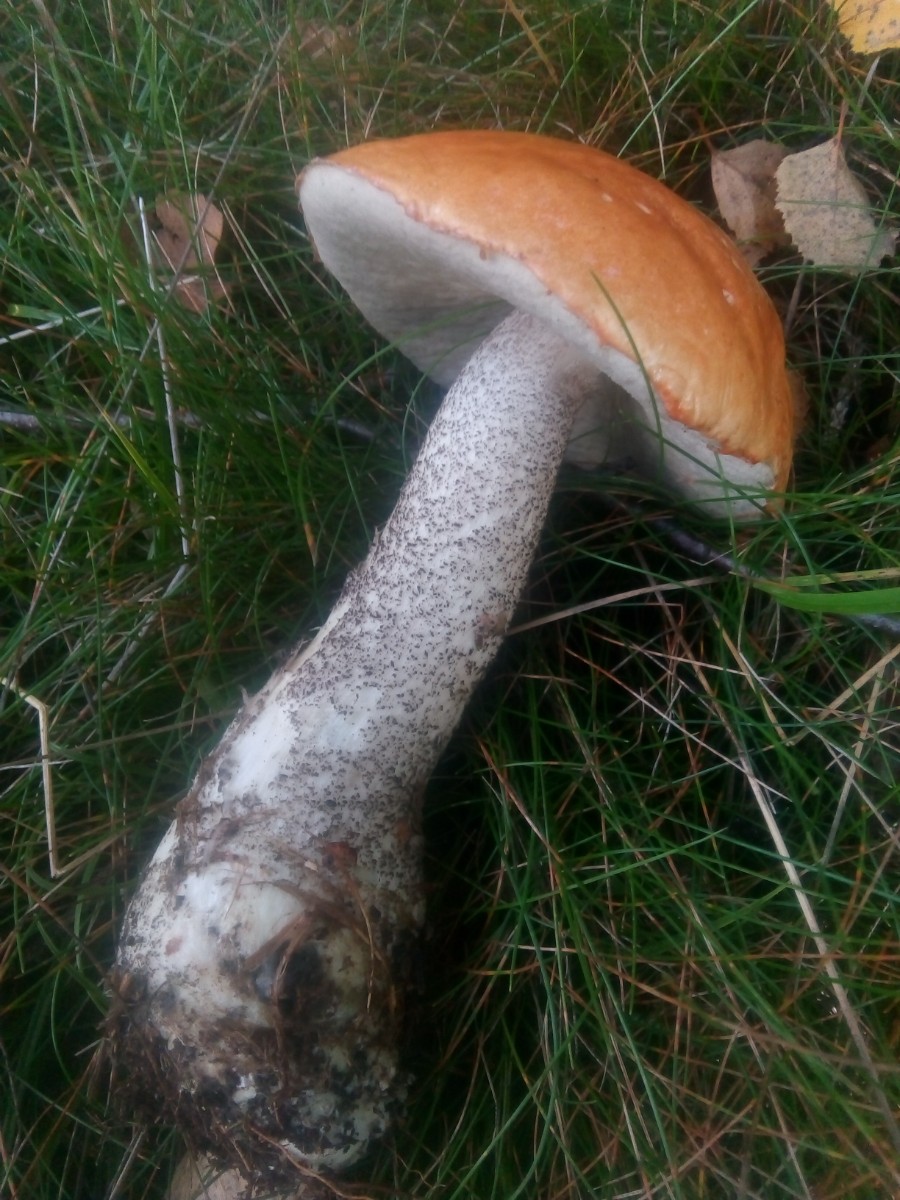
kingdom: Fungi
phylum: Basidiomycota
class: Agaricomycetes
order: Boletales
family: Boletaceae
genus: Leccinum
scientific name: Leccinum versipelle
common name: orange skælrørhat
